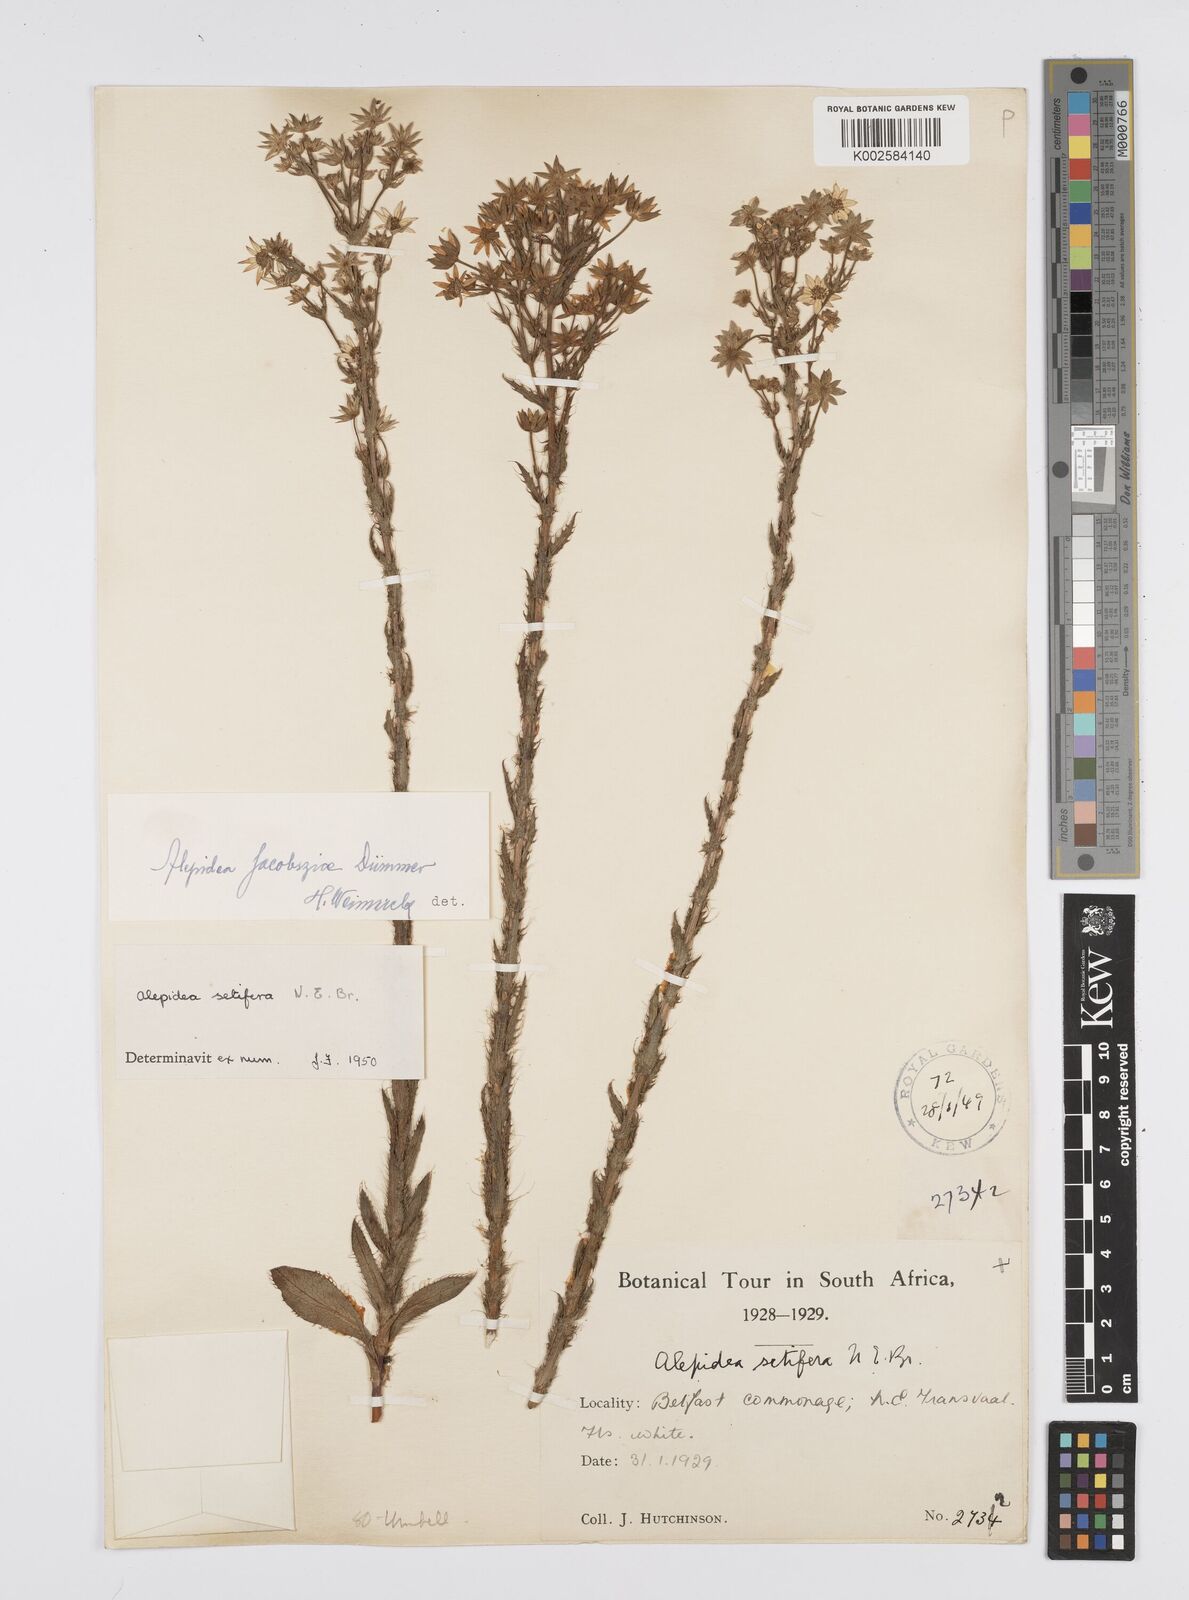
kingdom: Plantae
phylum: Tracheophyta
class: Magnoliopsida
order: Apiales
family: Apiaceae
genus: Alepidea
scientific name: Alepidea setifera
